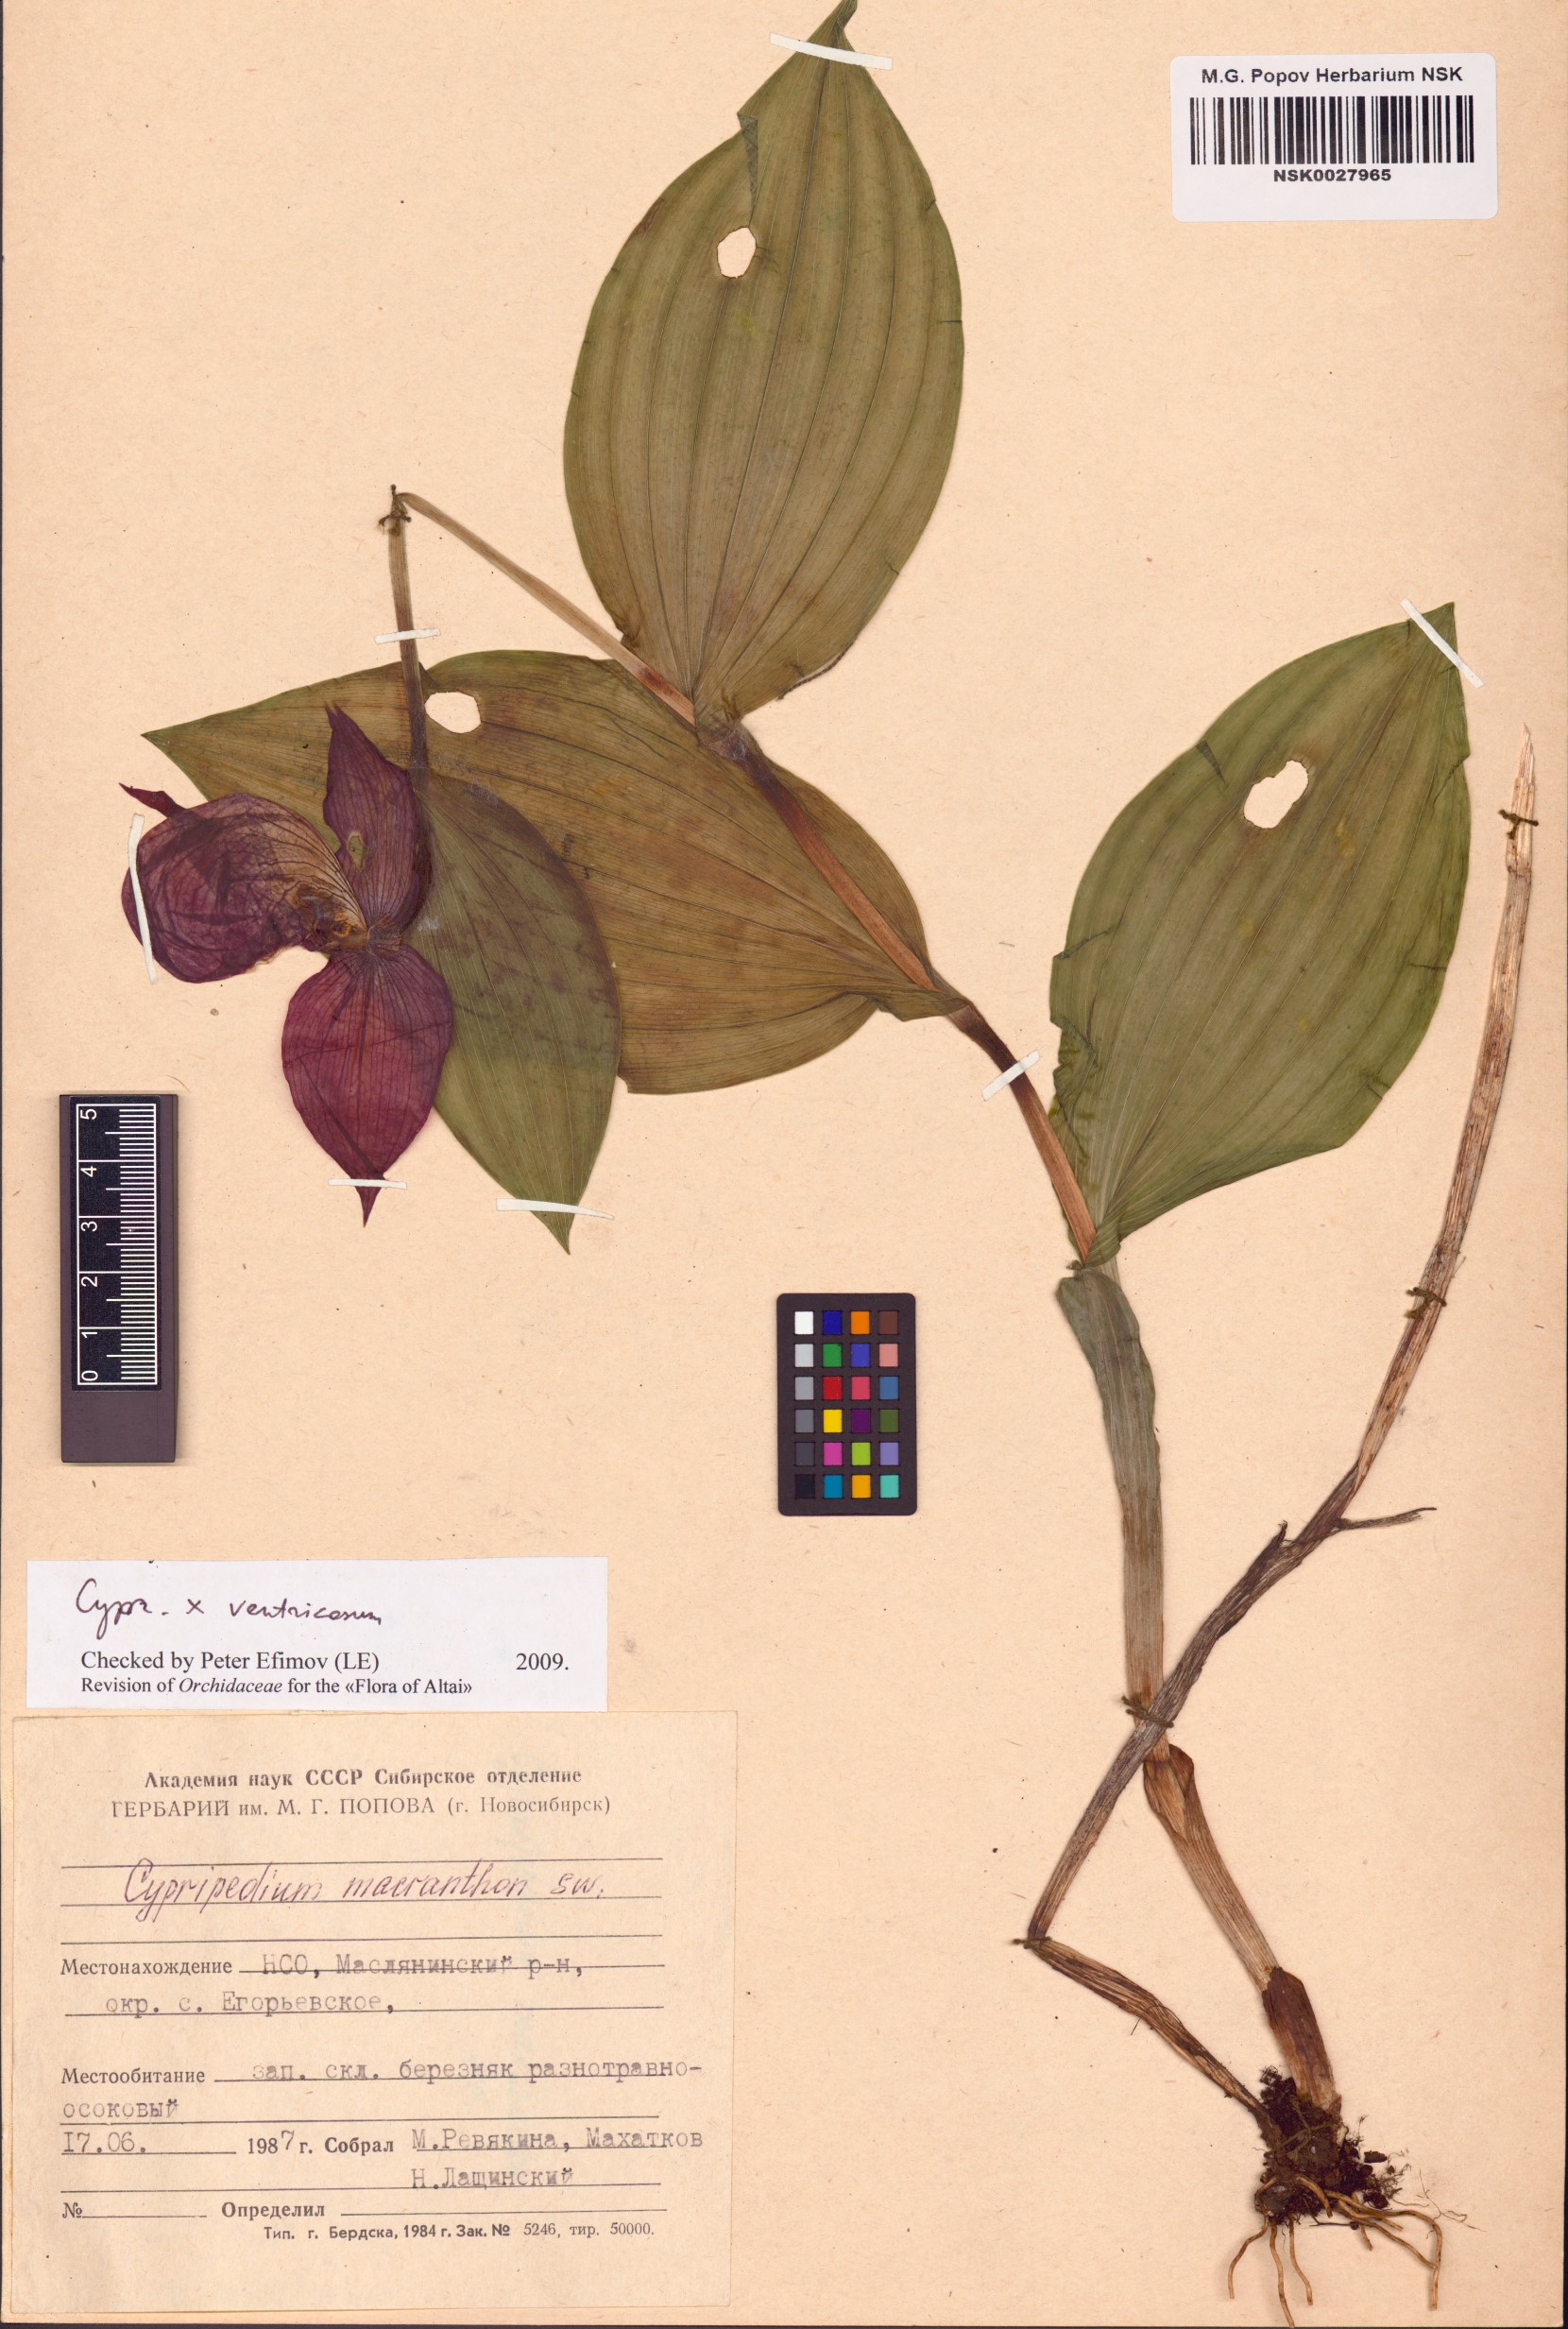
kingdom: Plantae
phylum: Tracheophyta
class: Liliopsida
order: Asparagales
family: Orchidaceae
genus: Cypripedium
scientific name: Cypripedium ventricosum
